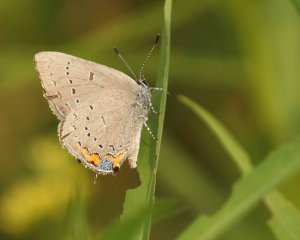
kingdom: Animalia
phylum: Arthropoda
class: Insecta
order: Lepidoptera
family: Lycaenidae
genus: Strymon
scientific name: Strymon acadica
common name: Acadian Hairstreak
